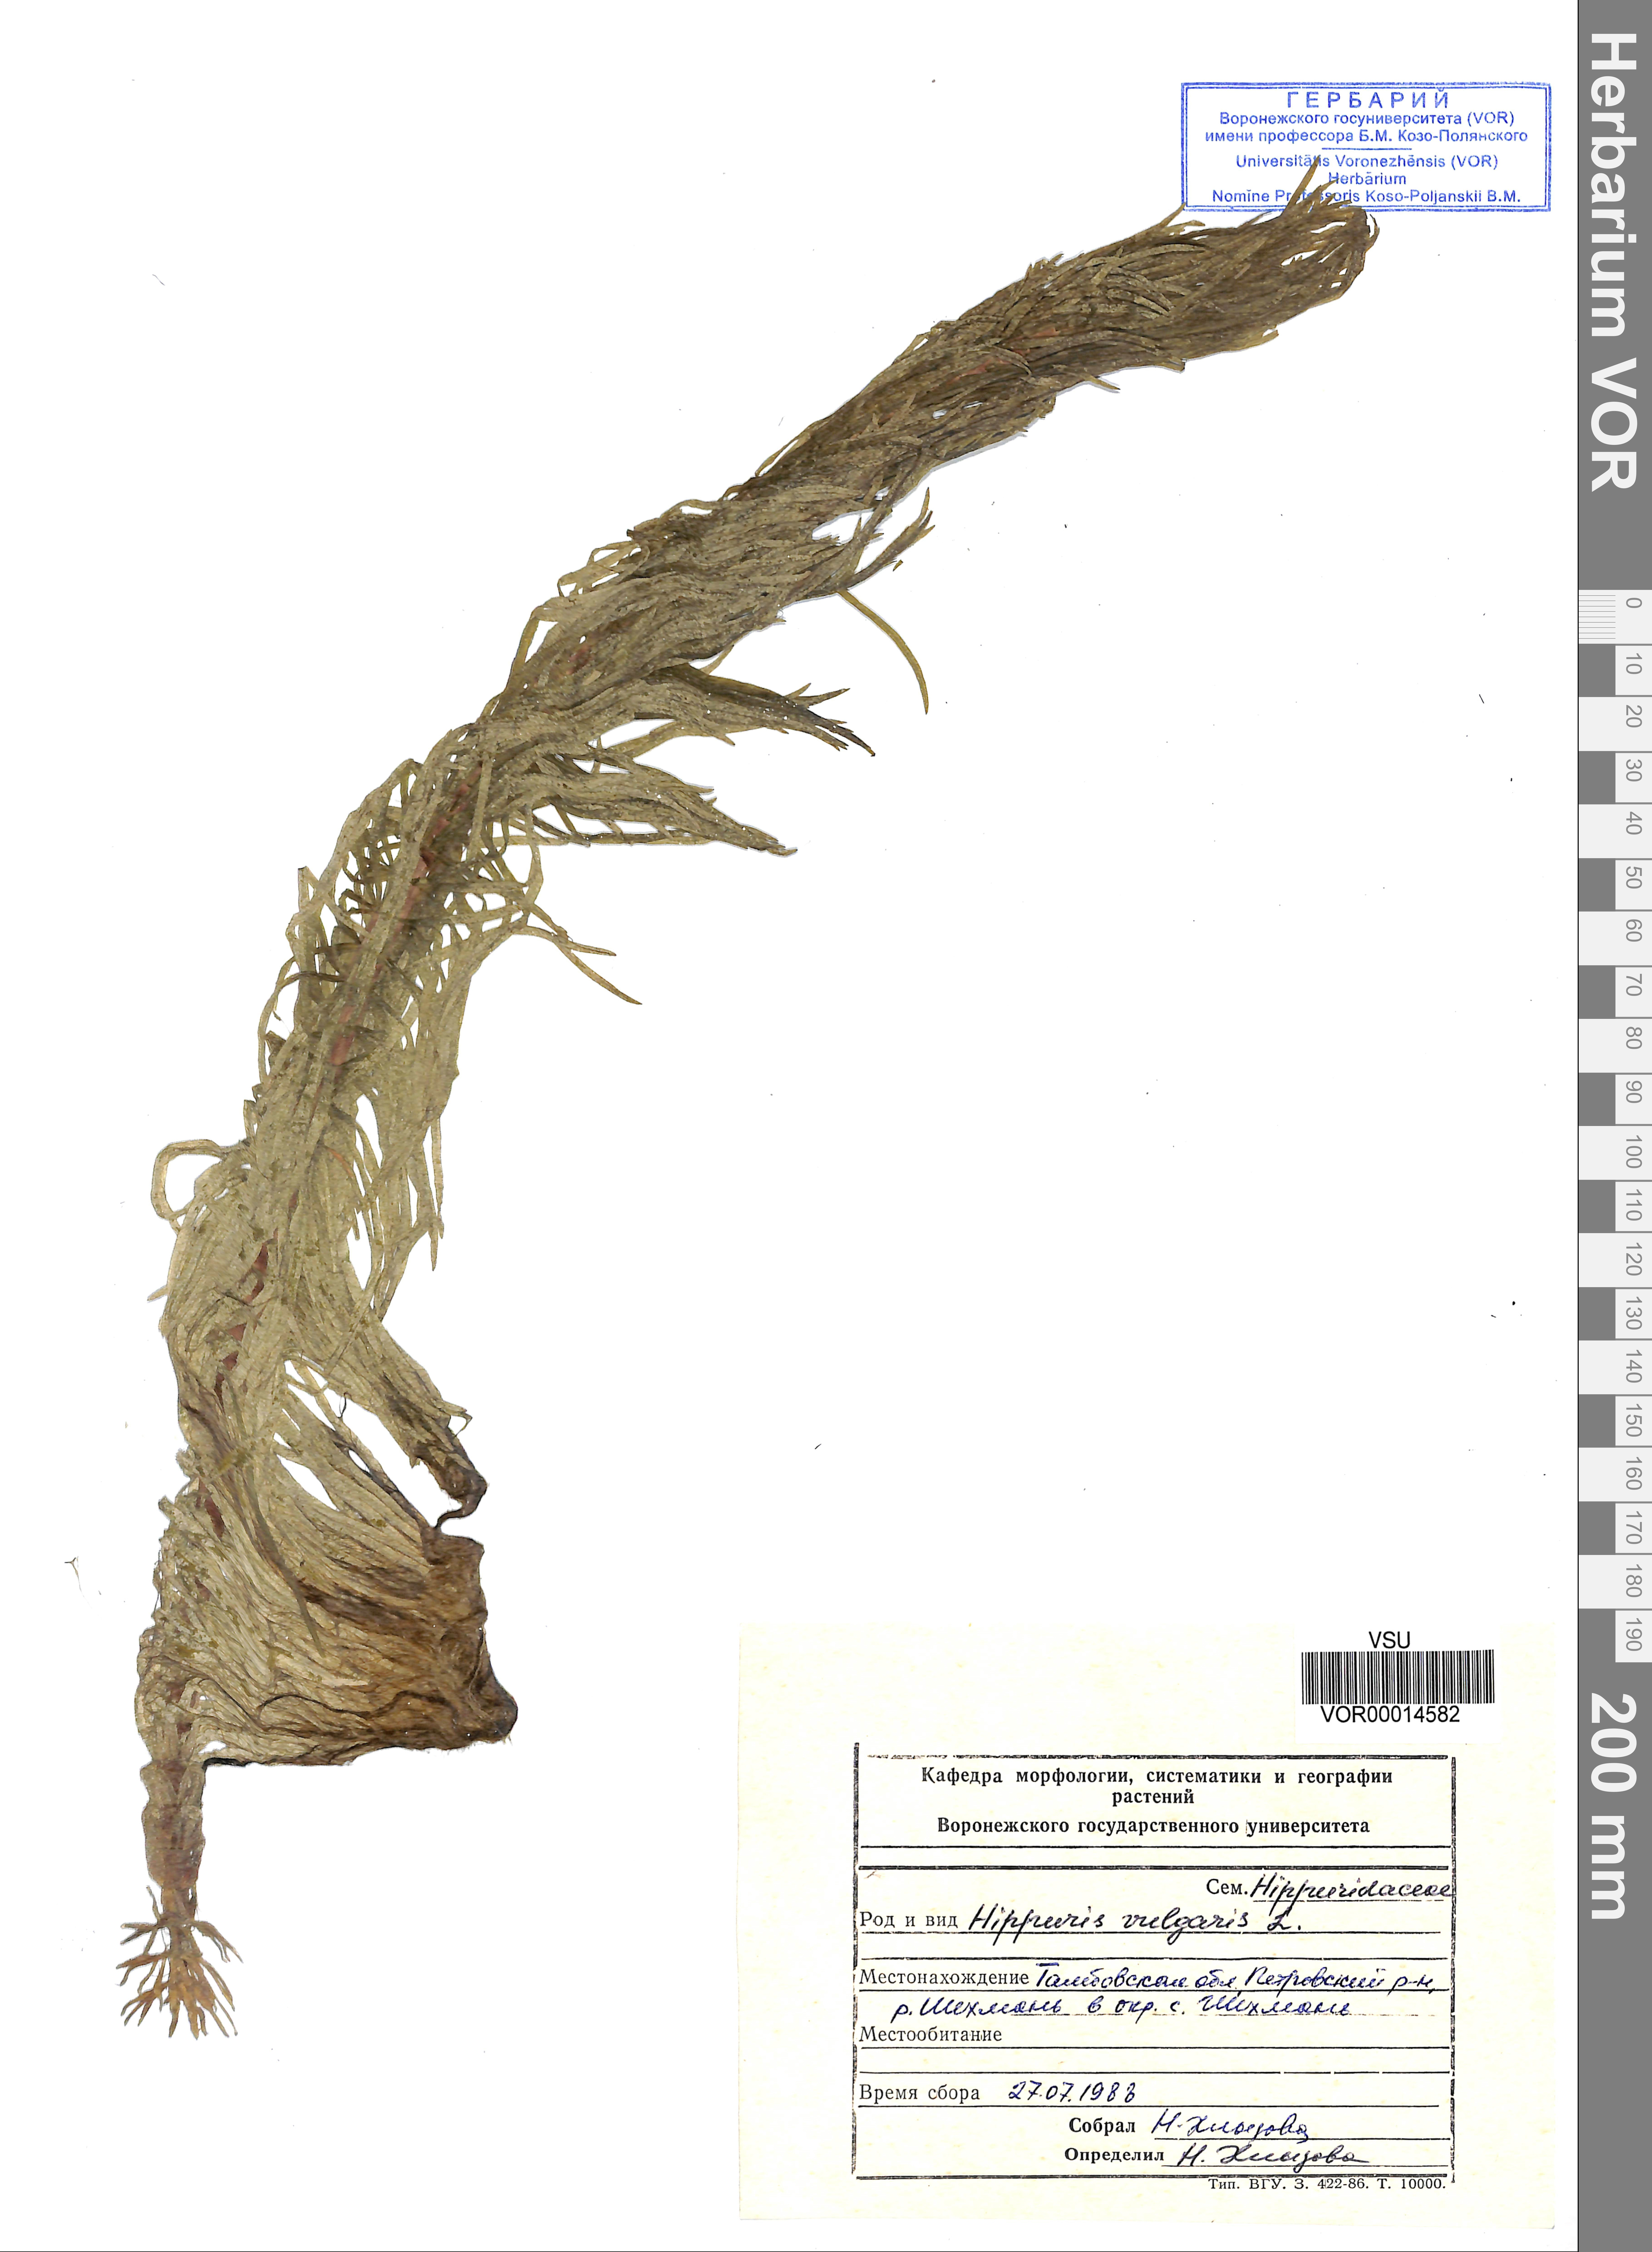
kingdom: Plantae
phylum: Tracheophyta
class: Magnoliopsida
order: Lamiales
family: Plantaginaceae
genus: Hippuris
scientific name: Hippuris vulgaris
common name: Mare's-tail
